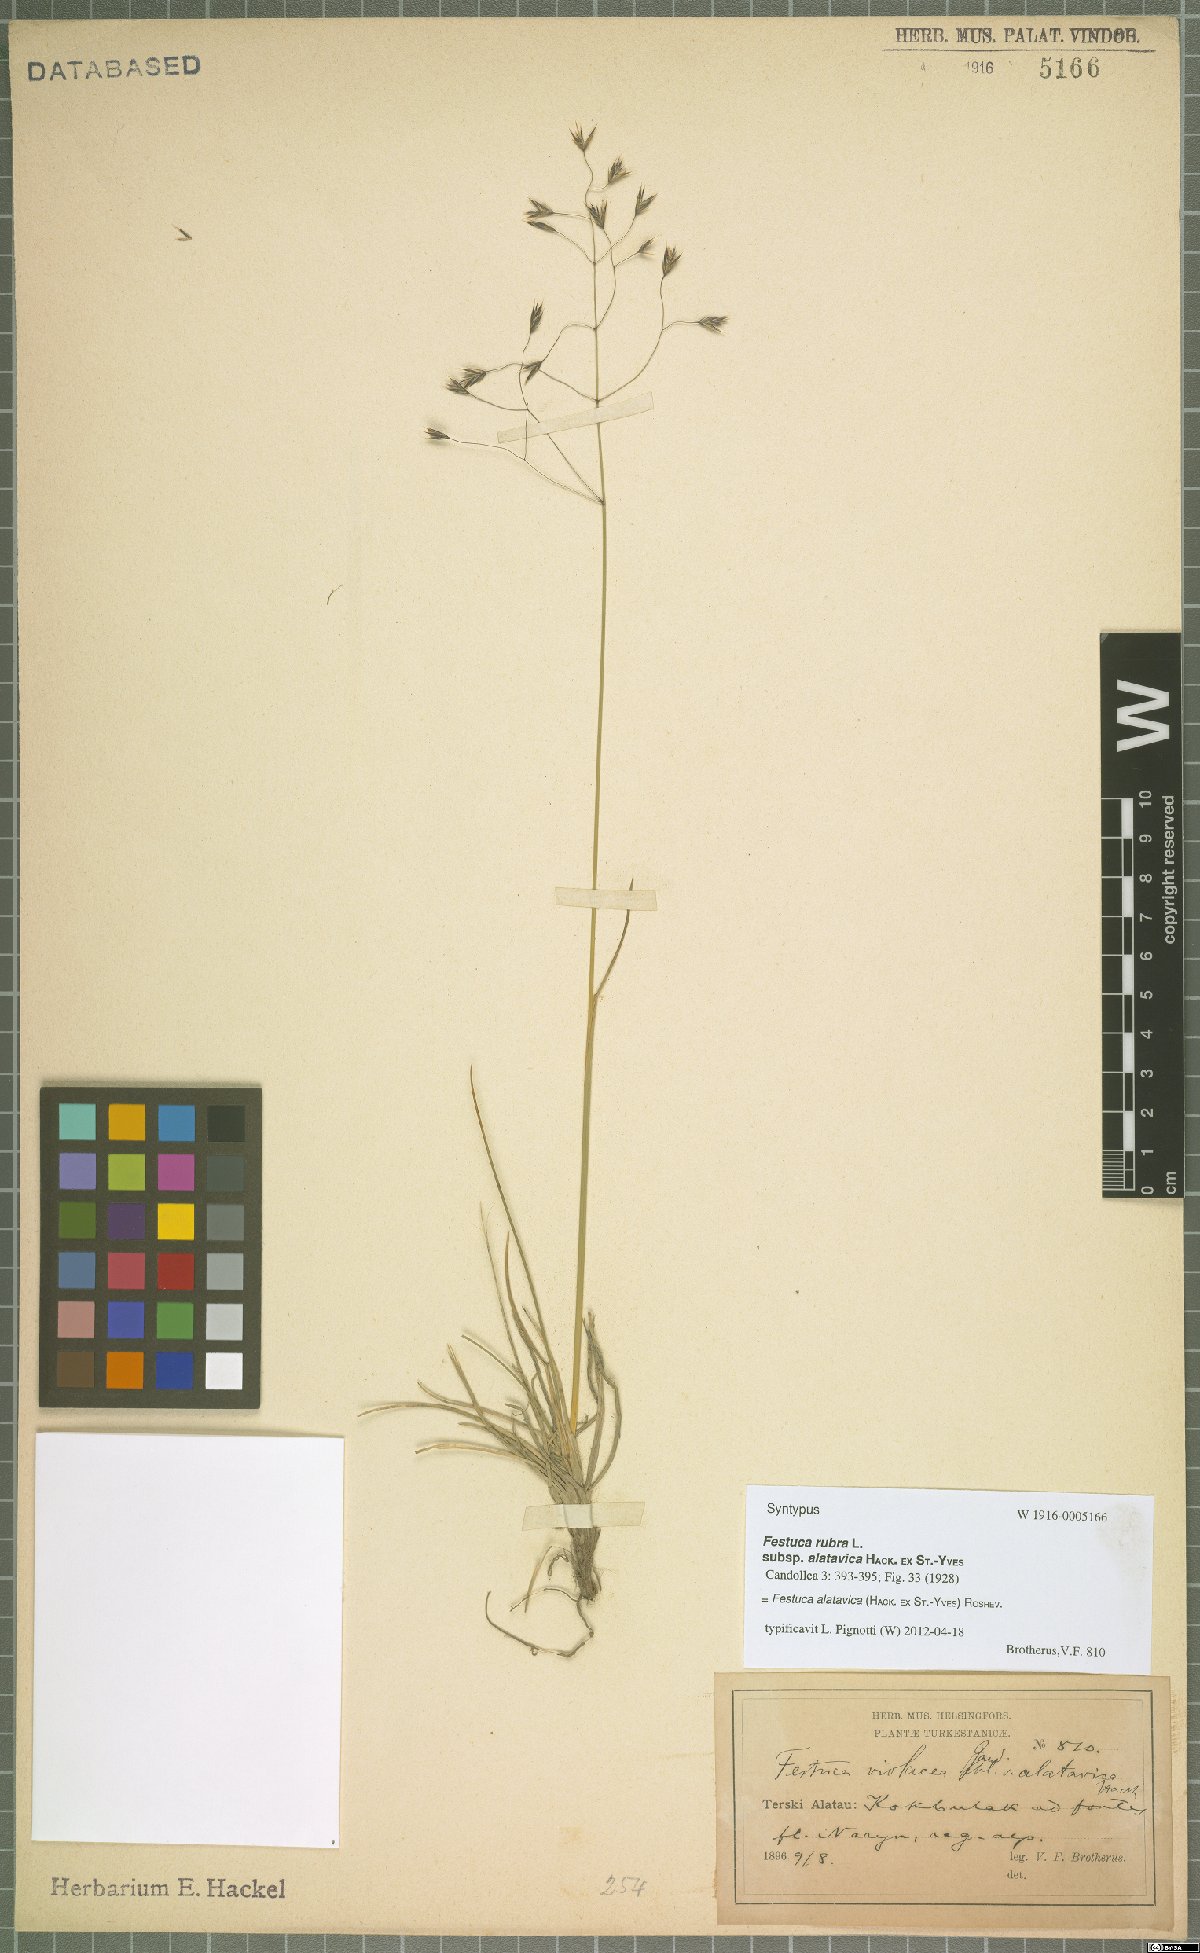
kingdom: Plantae
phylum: Tracheophyta
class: Liliopsida
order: Poales
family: Poaceae
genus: Festuca
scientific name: Festuca alatavica
